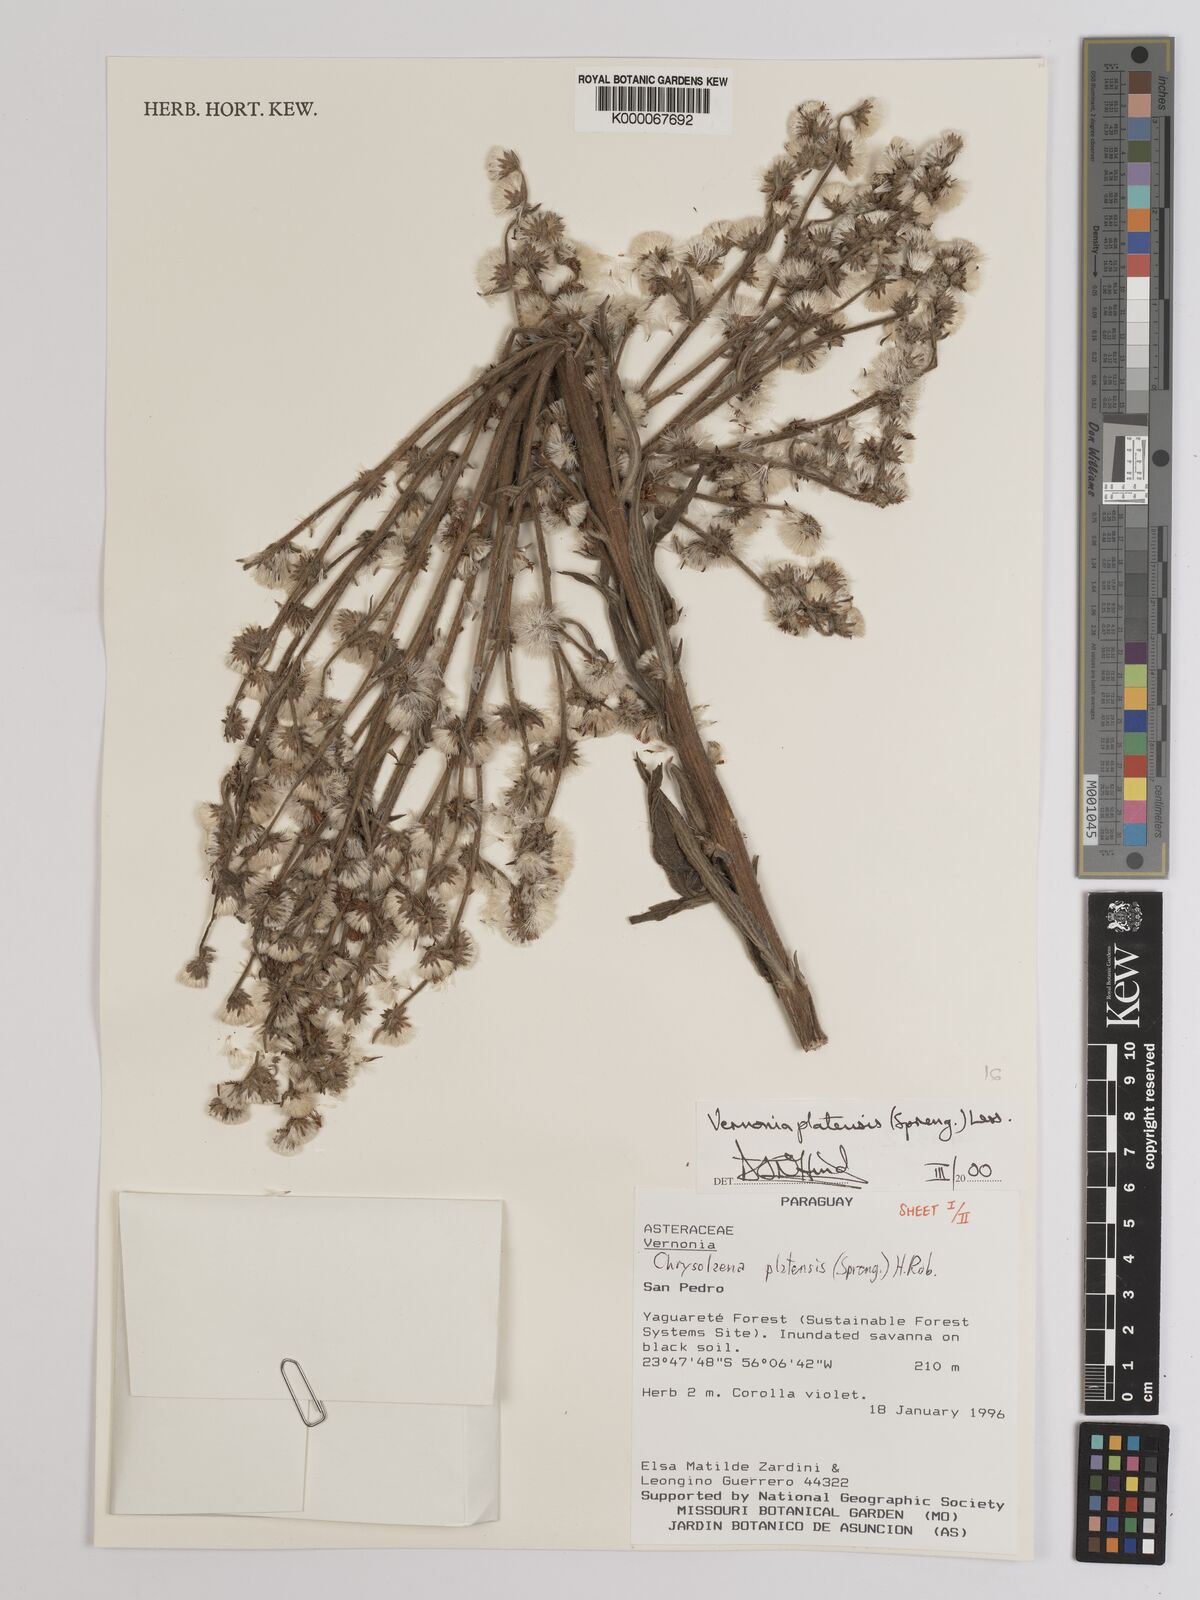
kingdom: Plantae
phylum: Tracheophyta
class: Magnoliopsida
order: Asterales
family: Asteraceae
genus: Chrysolaena
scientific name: Chrysolaena platensis
